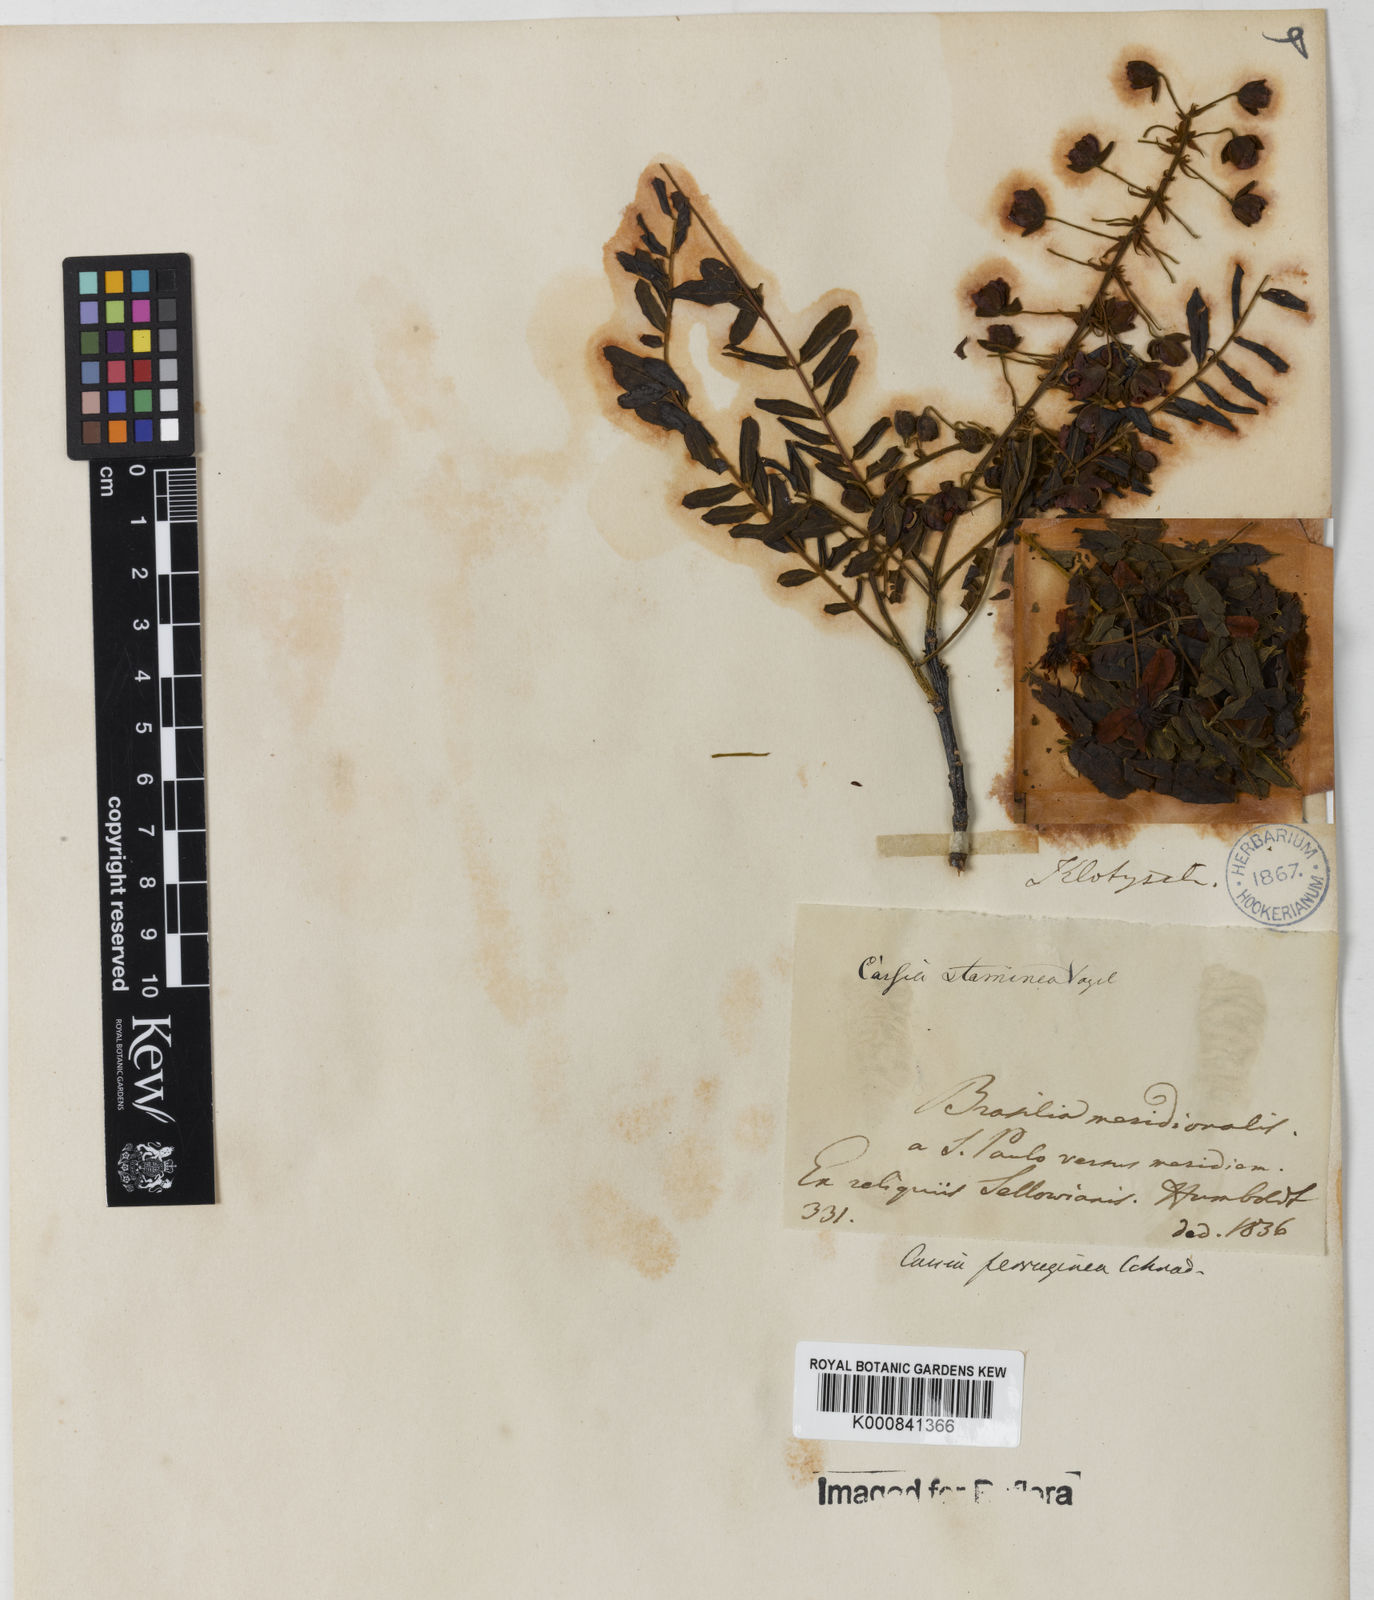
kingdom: Plantae
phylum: Tracheophyta
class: Magnoliopsida
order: Fabales
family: Fabaceae
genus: Cassia
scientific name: Cassia ferruginea
